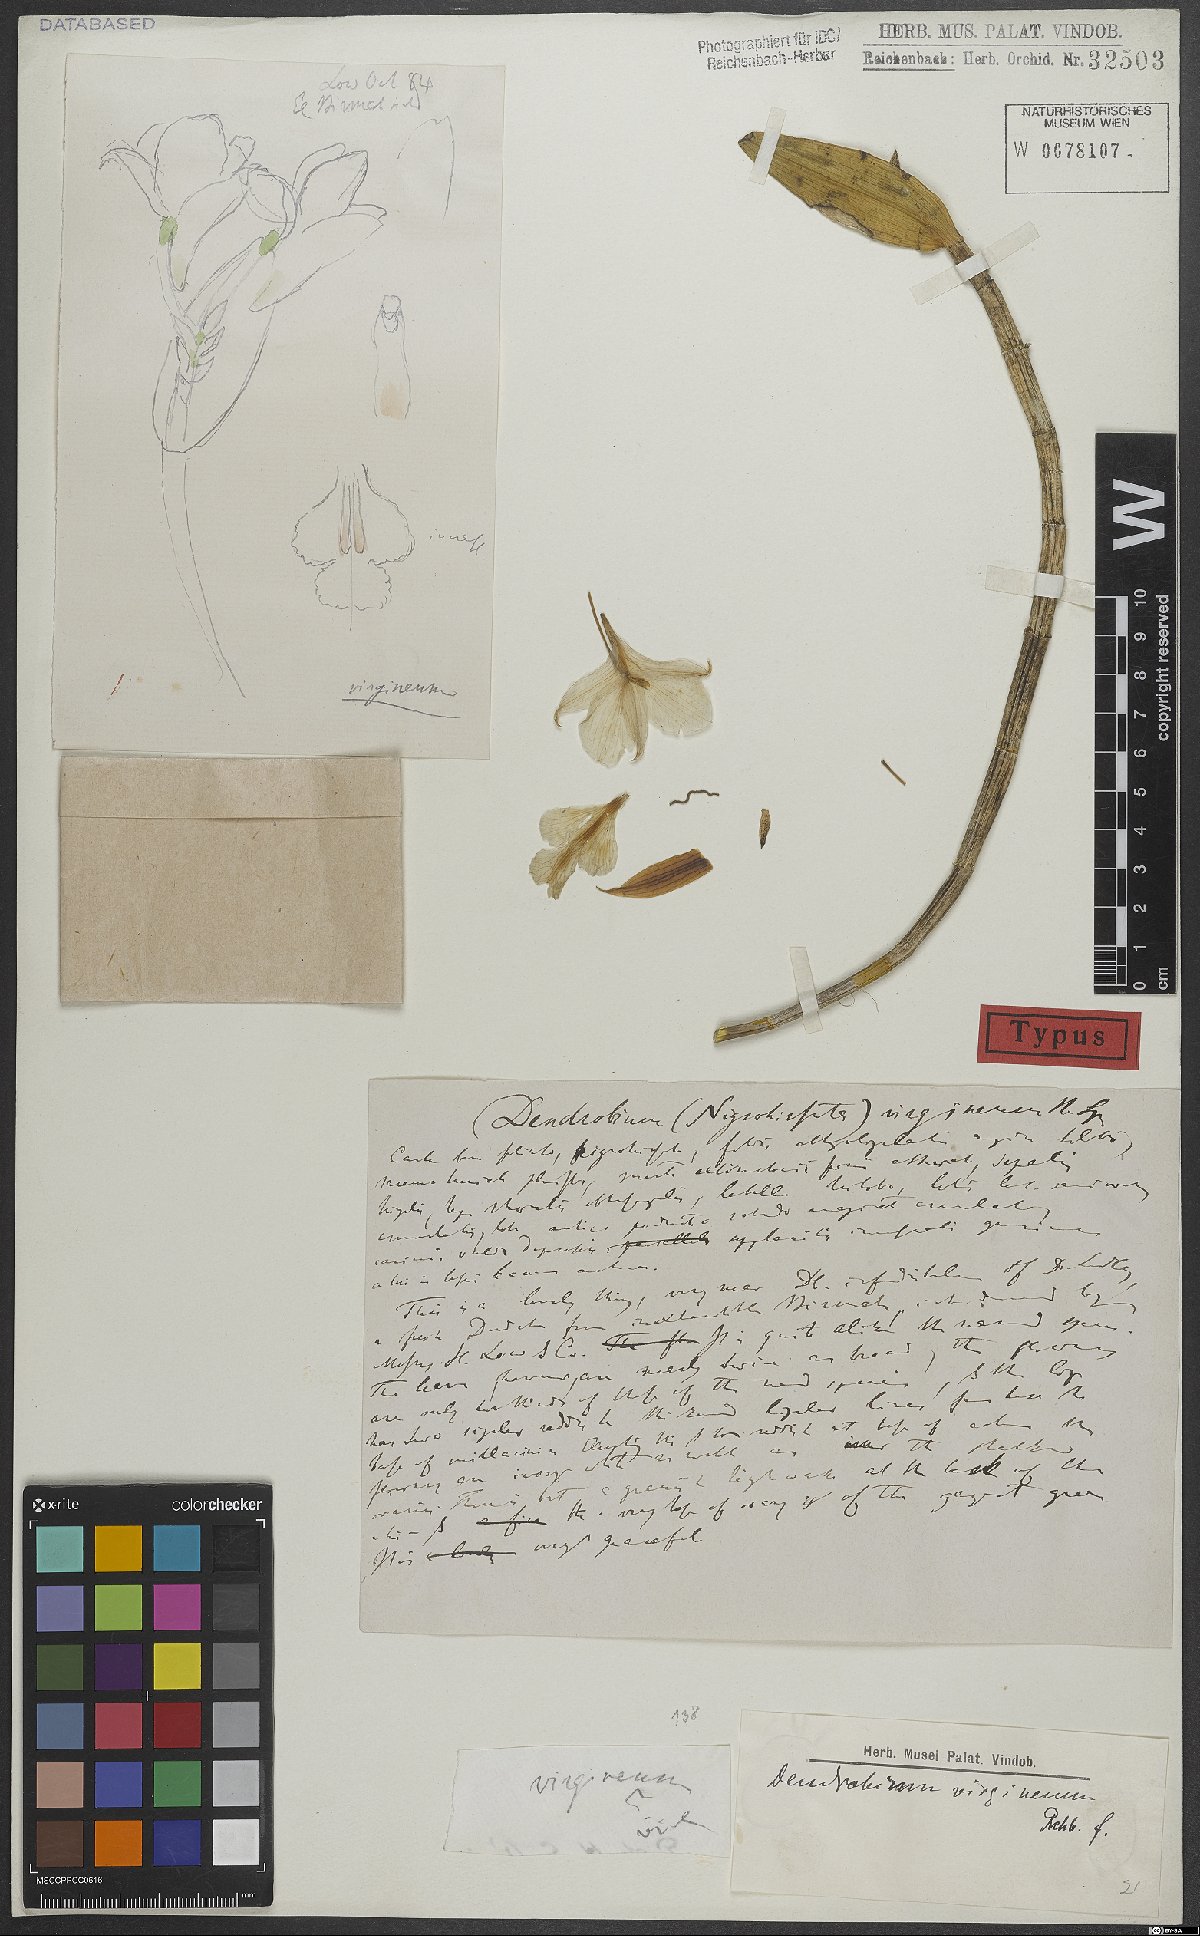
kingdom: Plantae
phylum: Tracheophyta
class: Liliopsida
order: Asparagales
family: Orchidaceae
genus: Dendrobium
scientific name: Dendrobium virgineum
